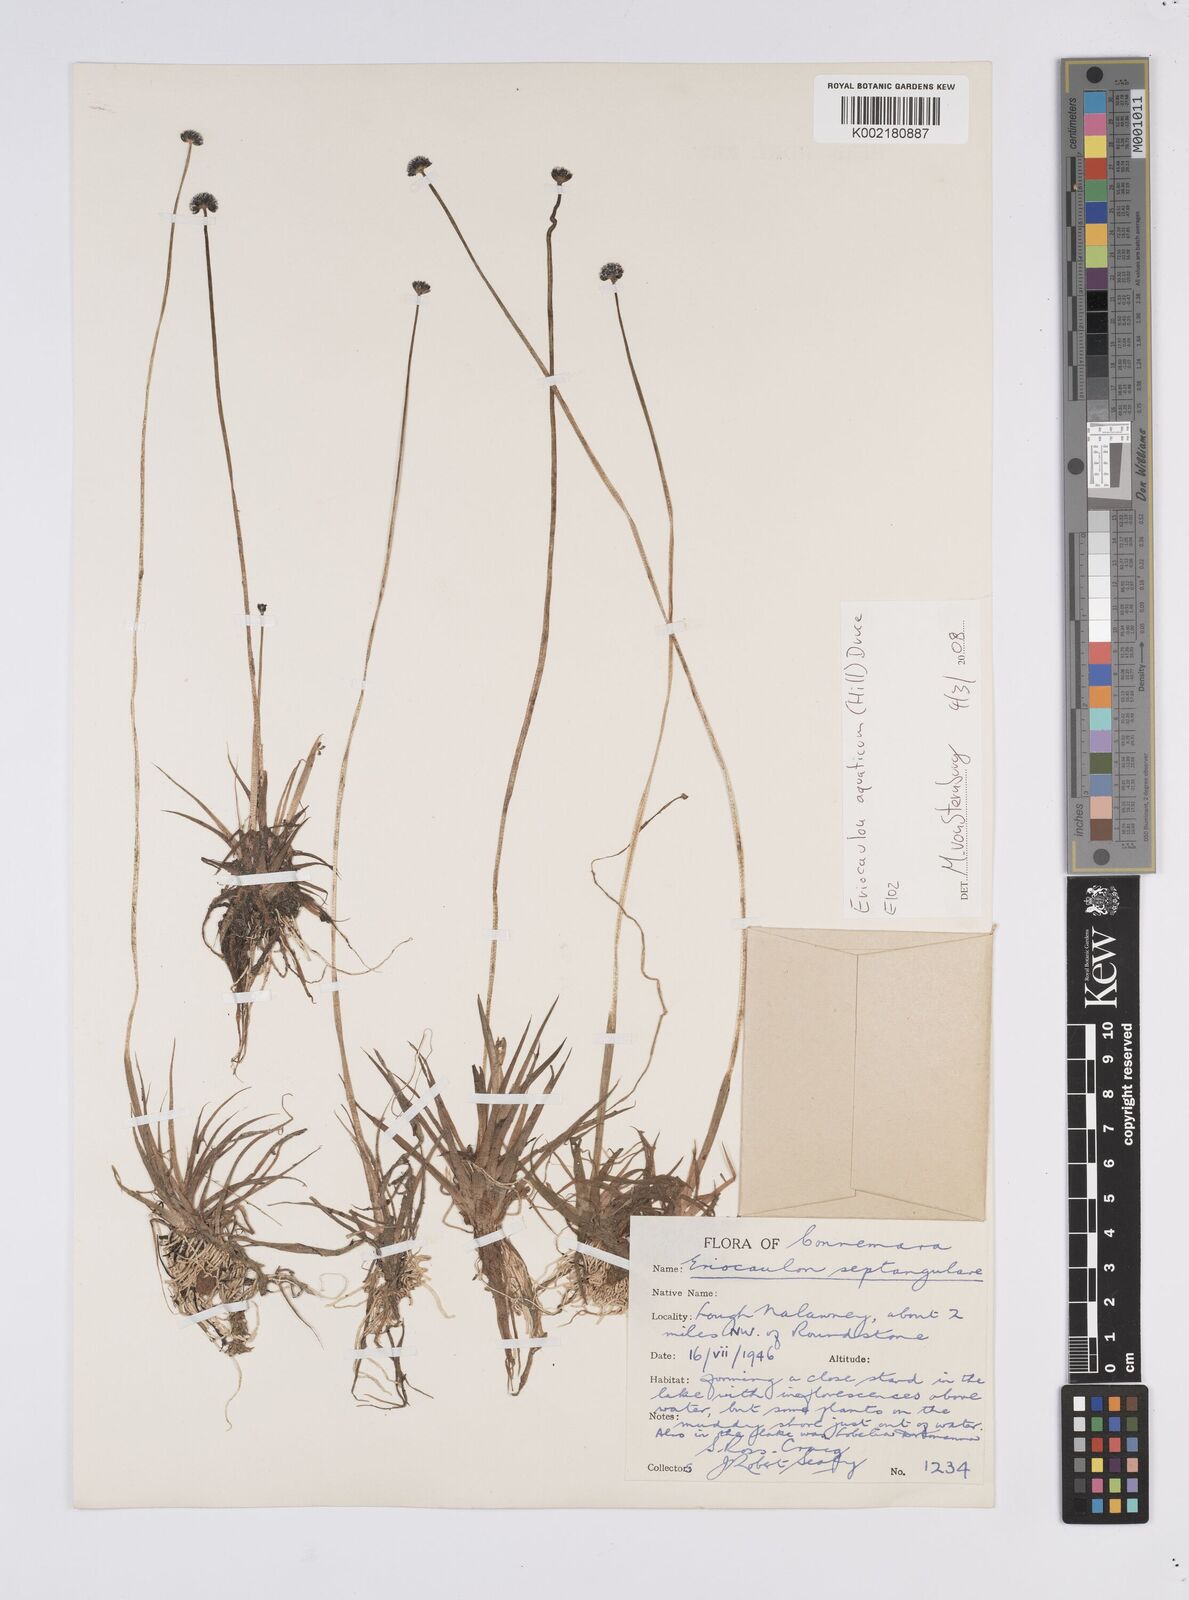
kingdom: Plantae
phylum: Tracheophyta
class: Liliopsida
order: Poales
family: Eriocaulaceae
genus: Eriocaulon
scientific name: Eriocaulon aquaticum
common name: Pipewort
